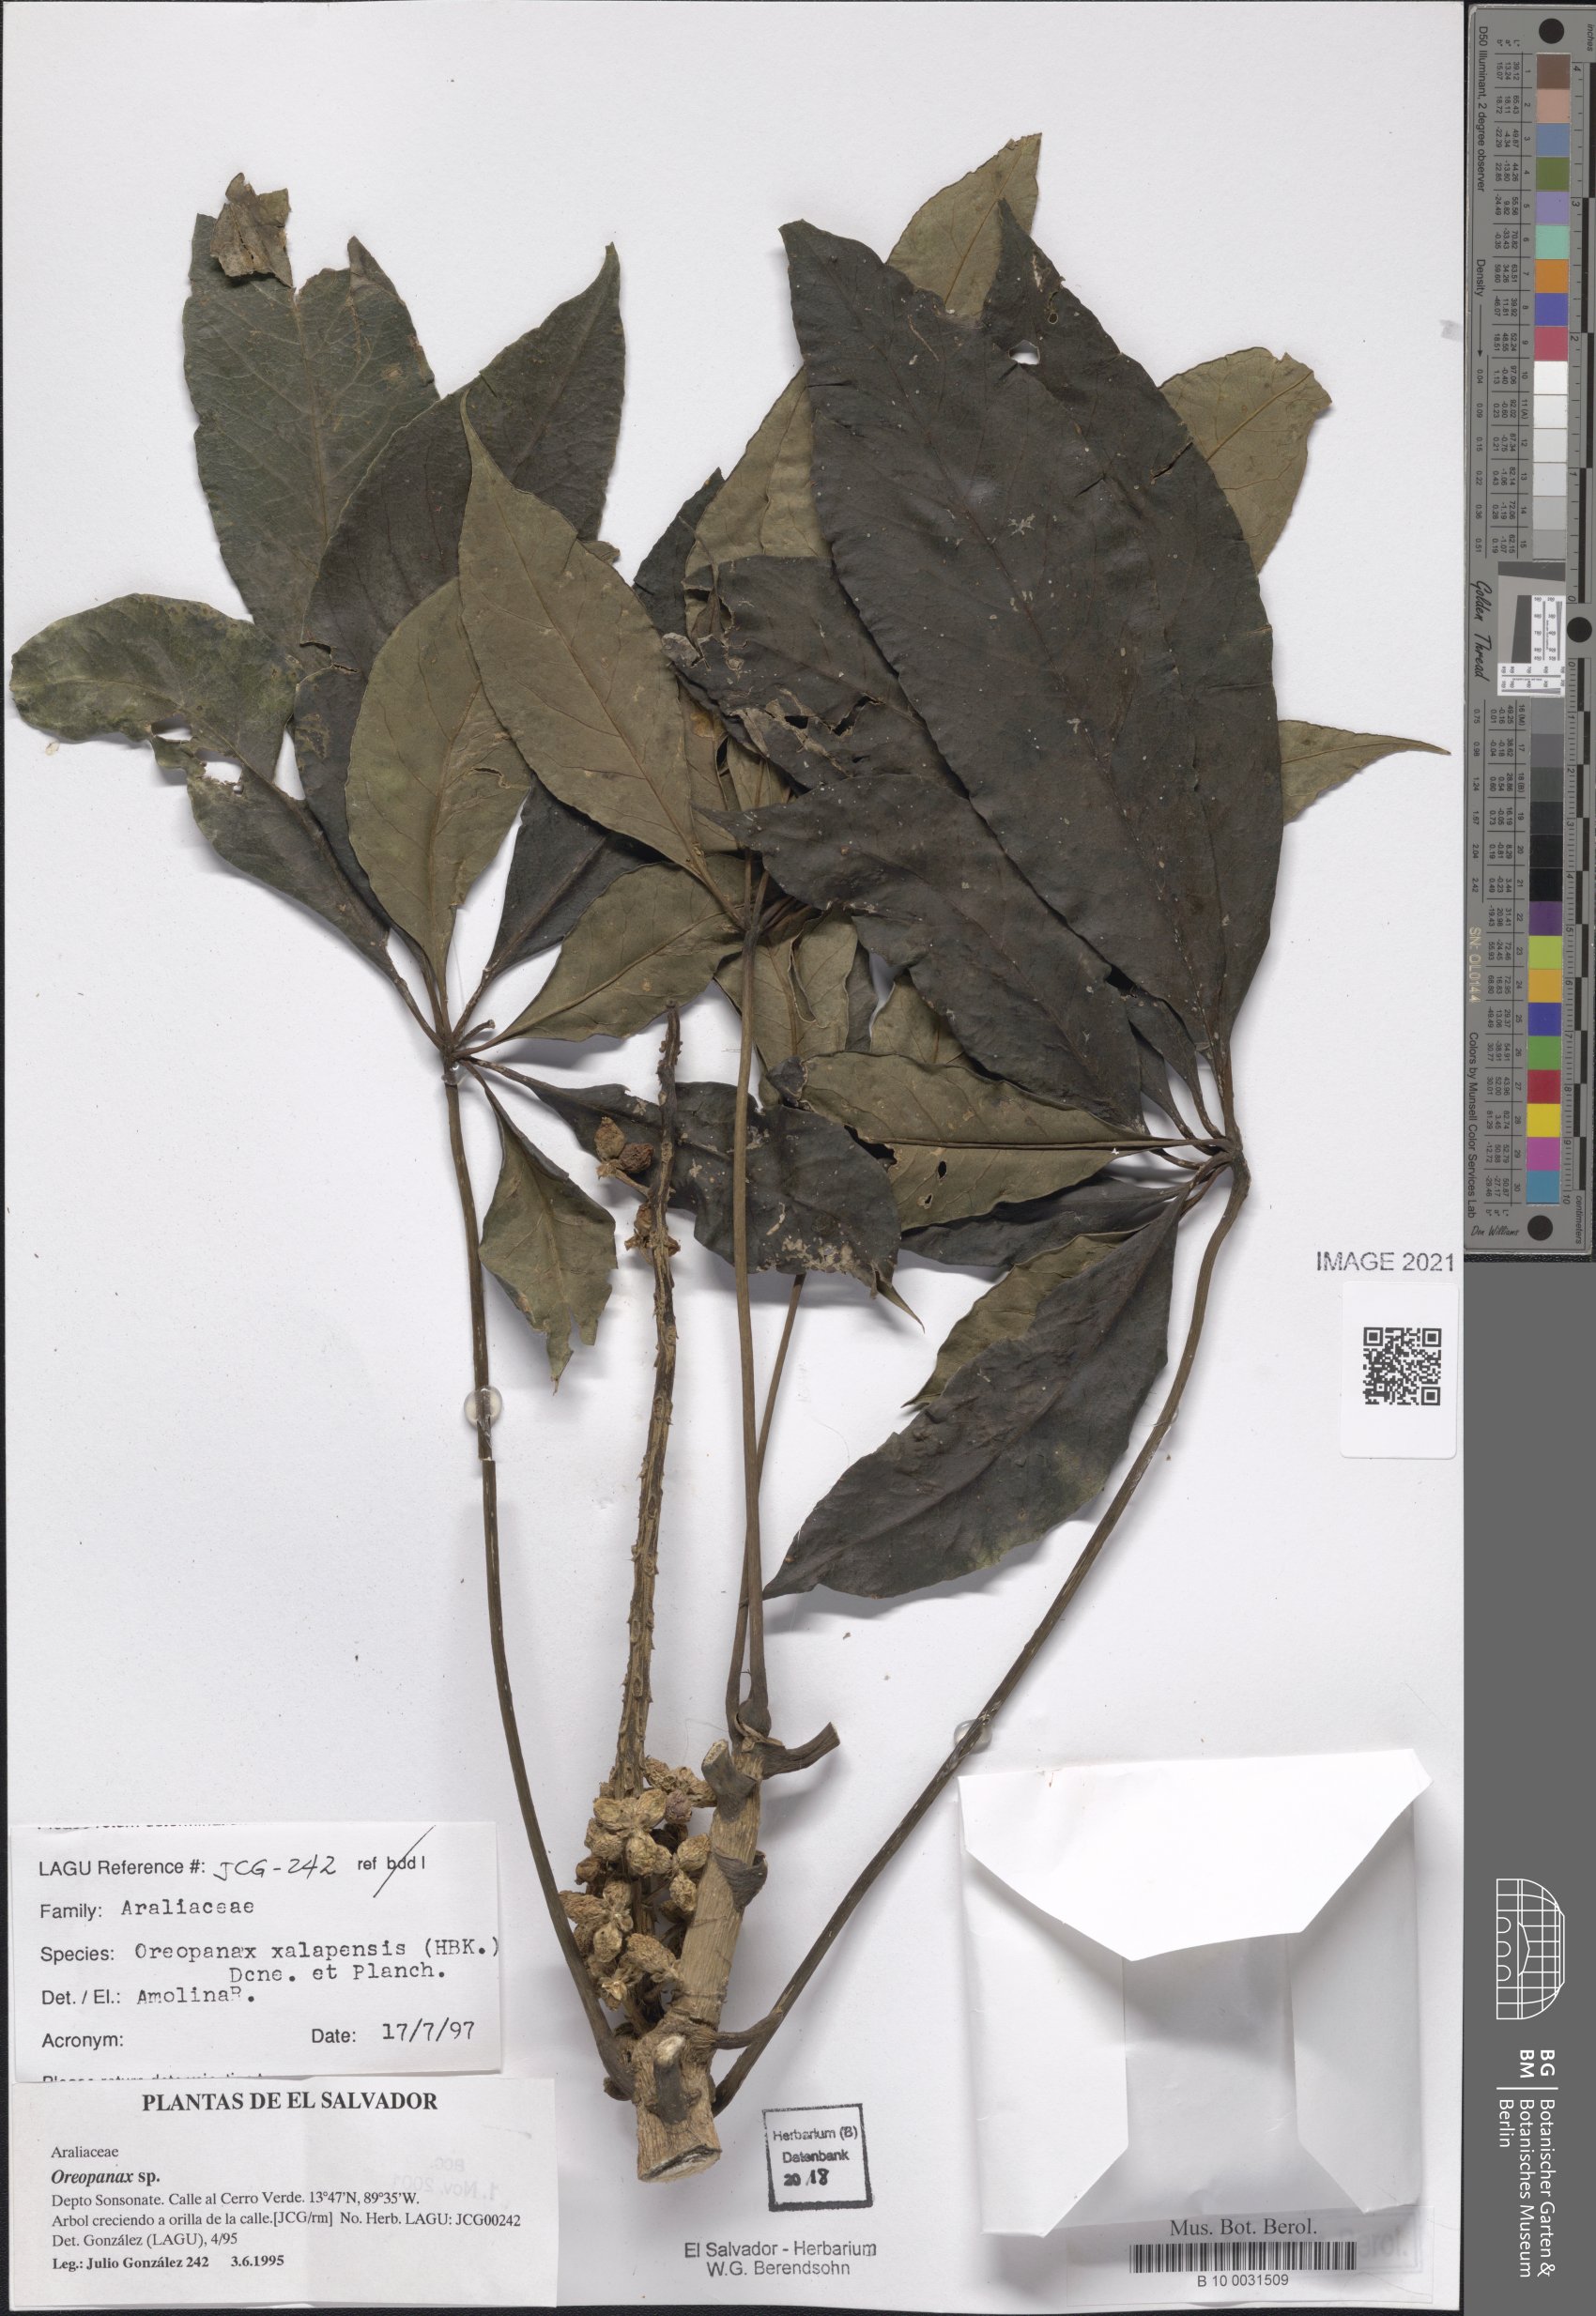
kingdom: Plantae
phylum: Tracheophyta
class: Magnoliopsida
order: Apiales
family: Araliaceae
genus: Oreopanax
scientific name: Oreopanax xalapensis
